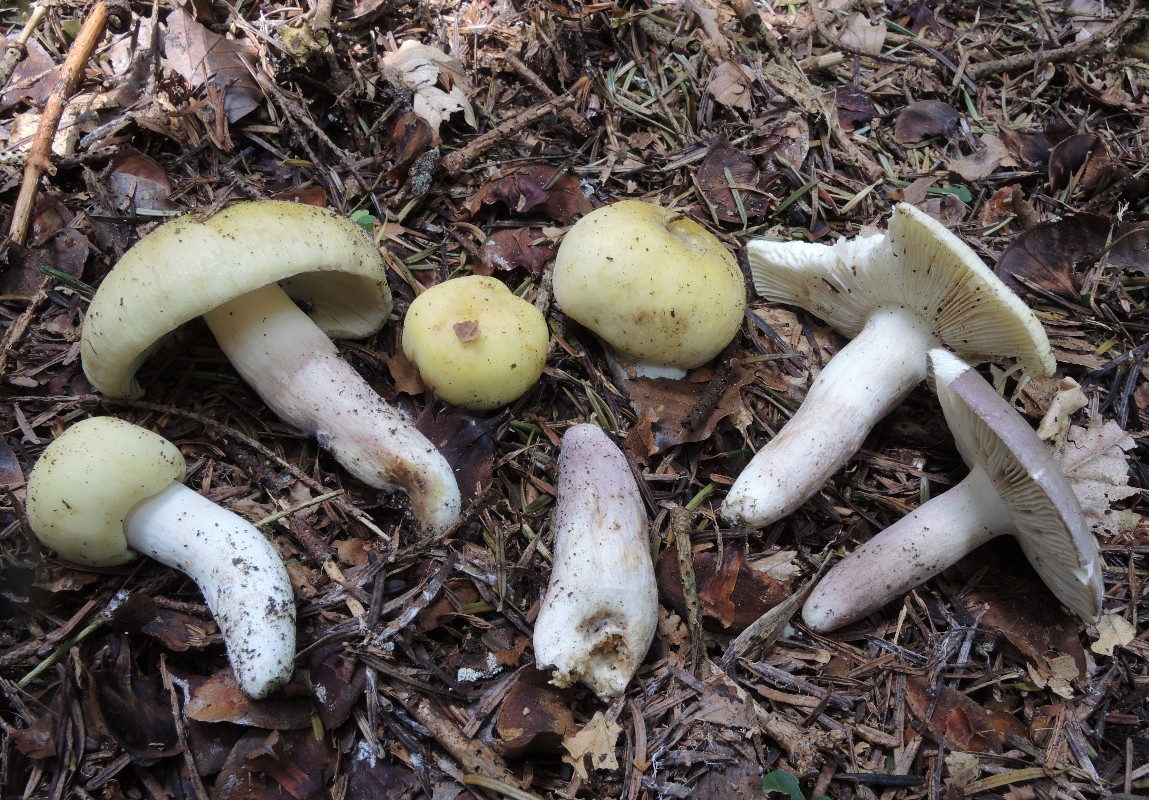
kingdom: Fungi
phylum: Basidiomycota
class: Agaricomycetes
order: Russulales
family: Russulaceae
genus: Russula
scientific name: Russula violeipes
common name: ferskengul skørhat
